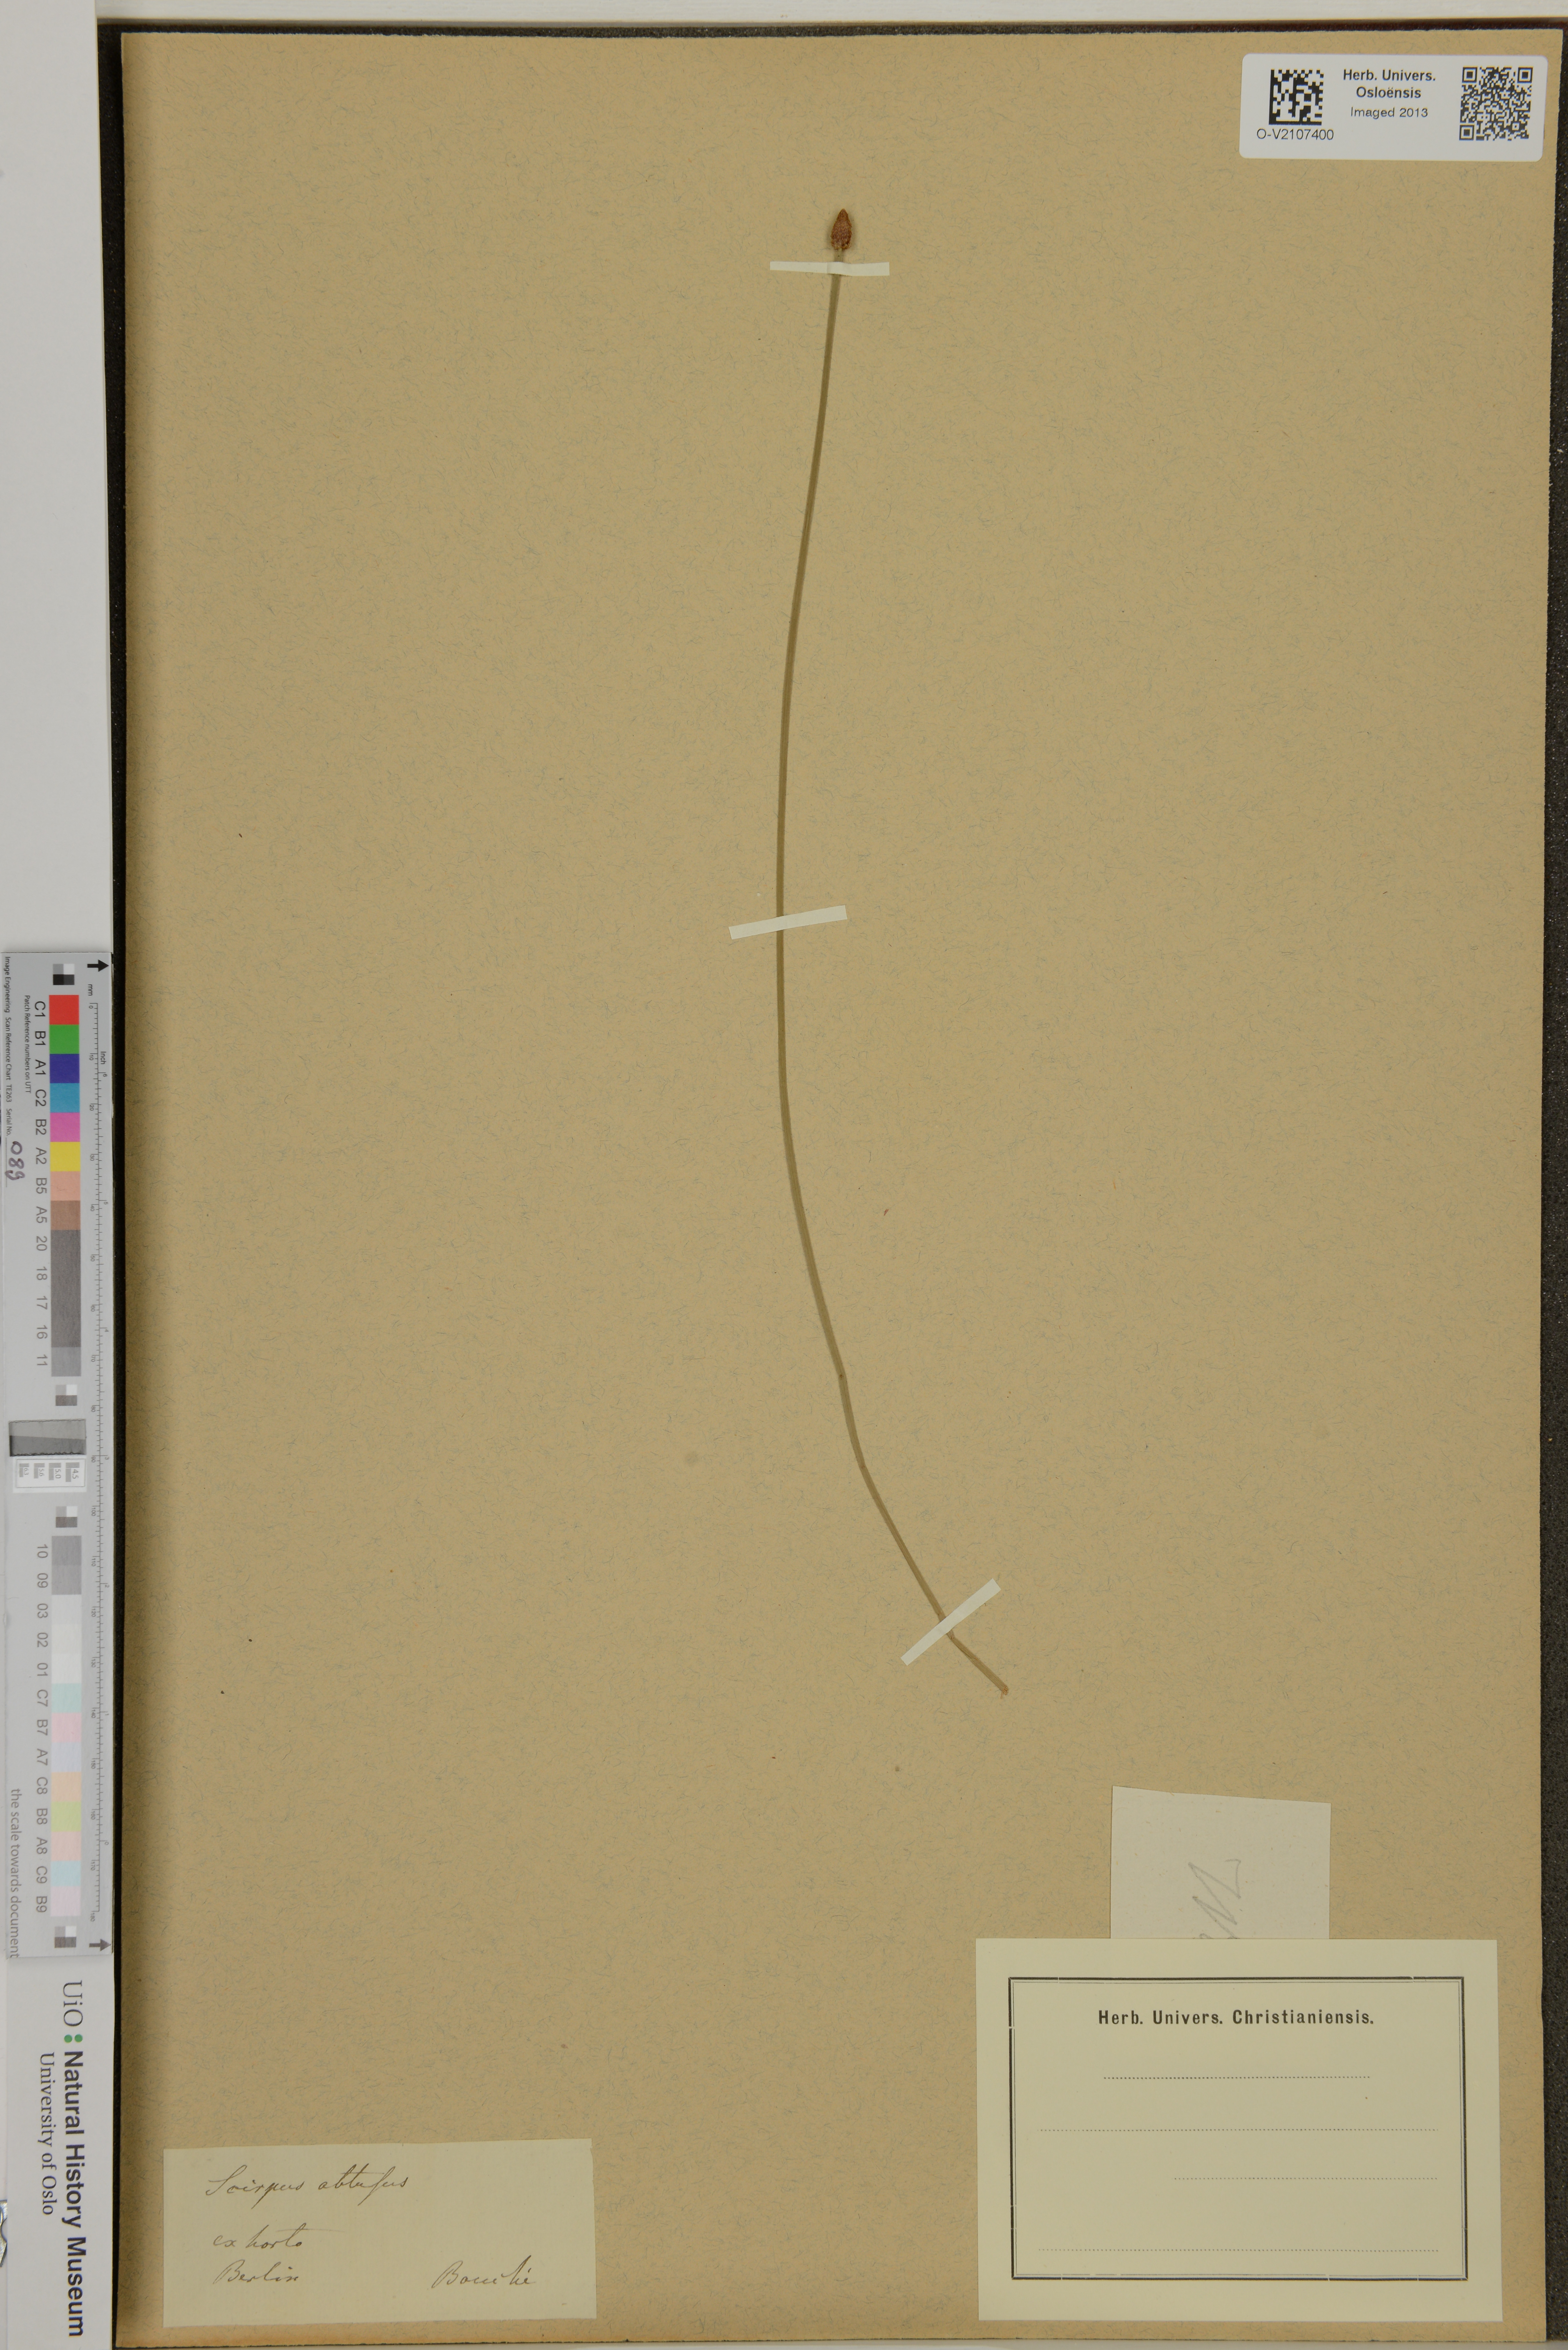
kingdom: Plantae
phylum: Tracheophyta
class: Liliopsida
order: Poales
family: Cyperaceae
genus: Eleocharis
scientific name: Eleocharis obtusa
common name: Blunt spikerush
